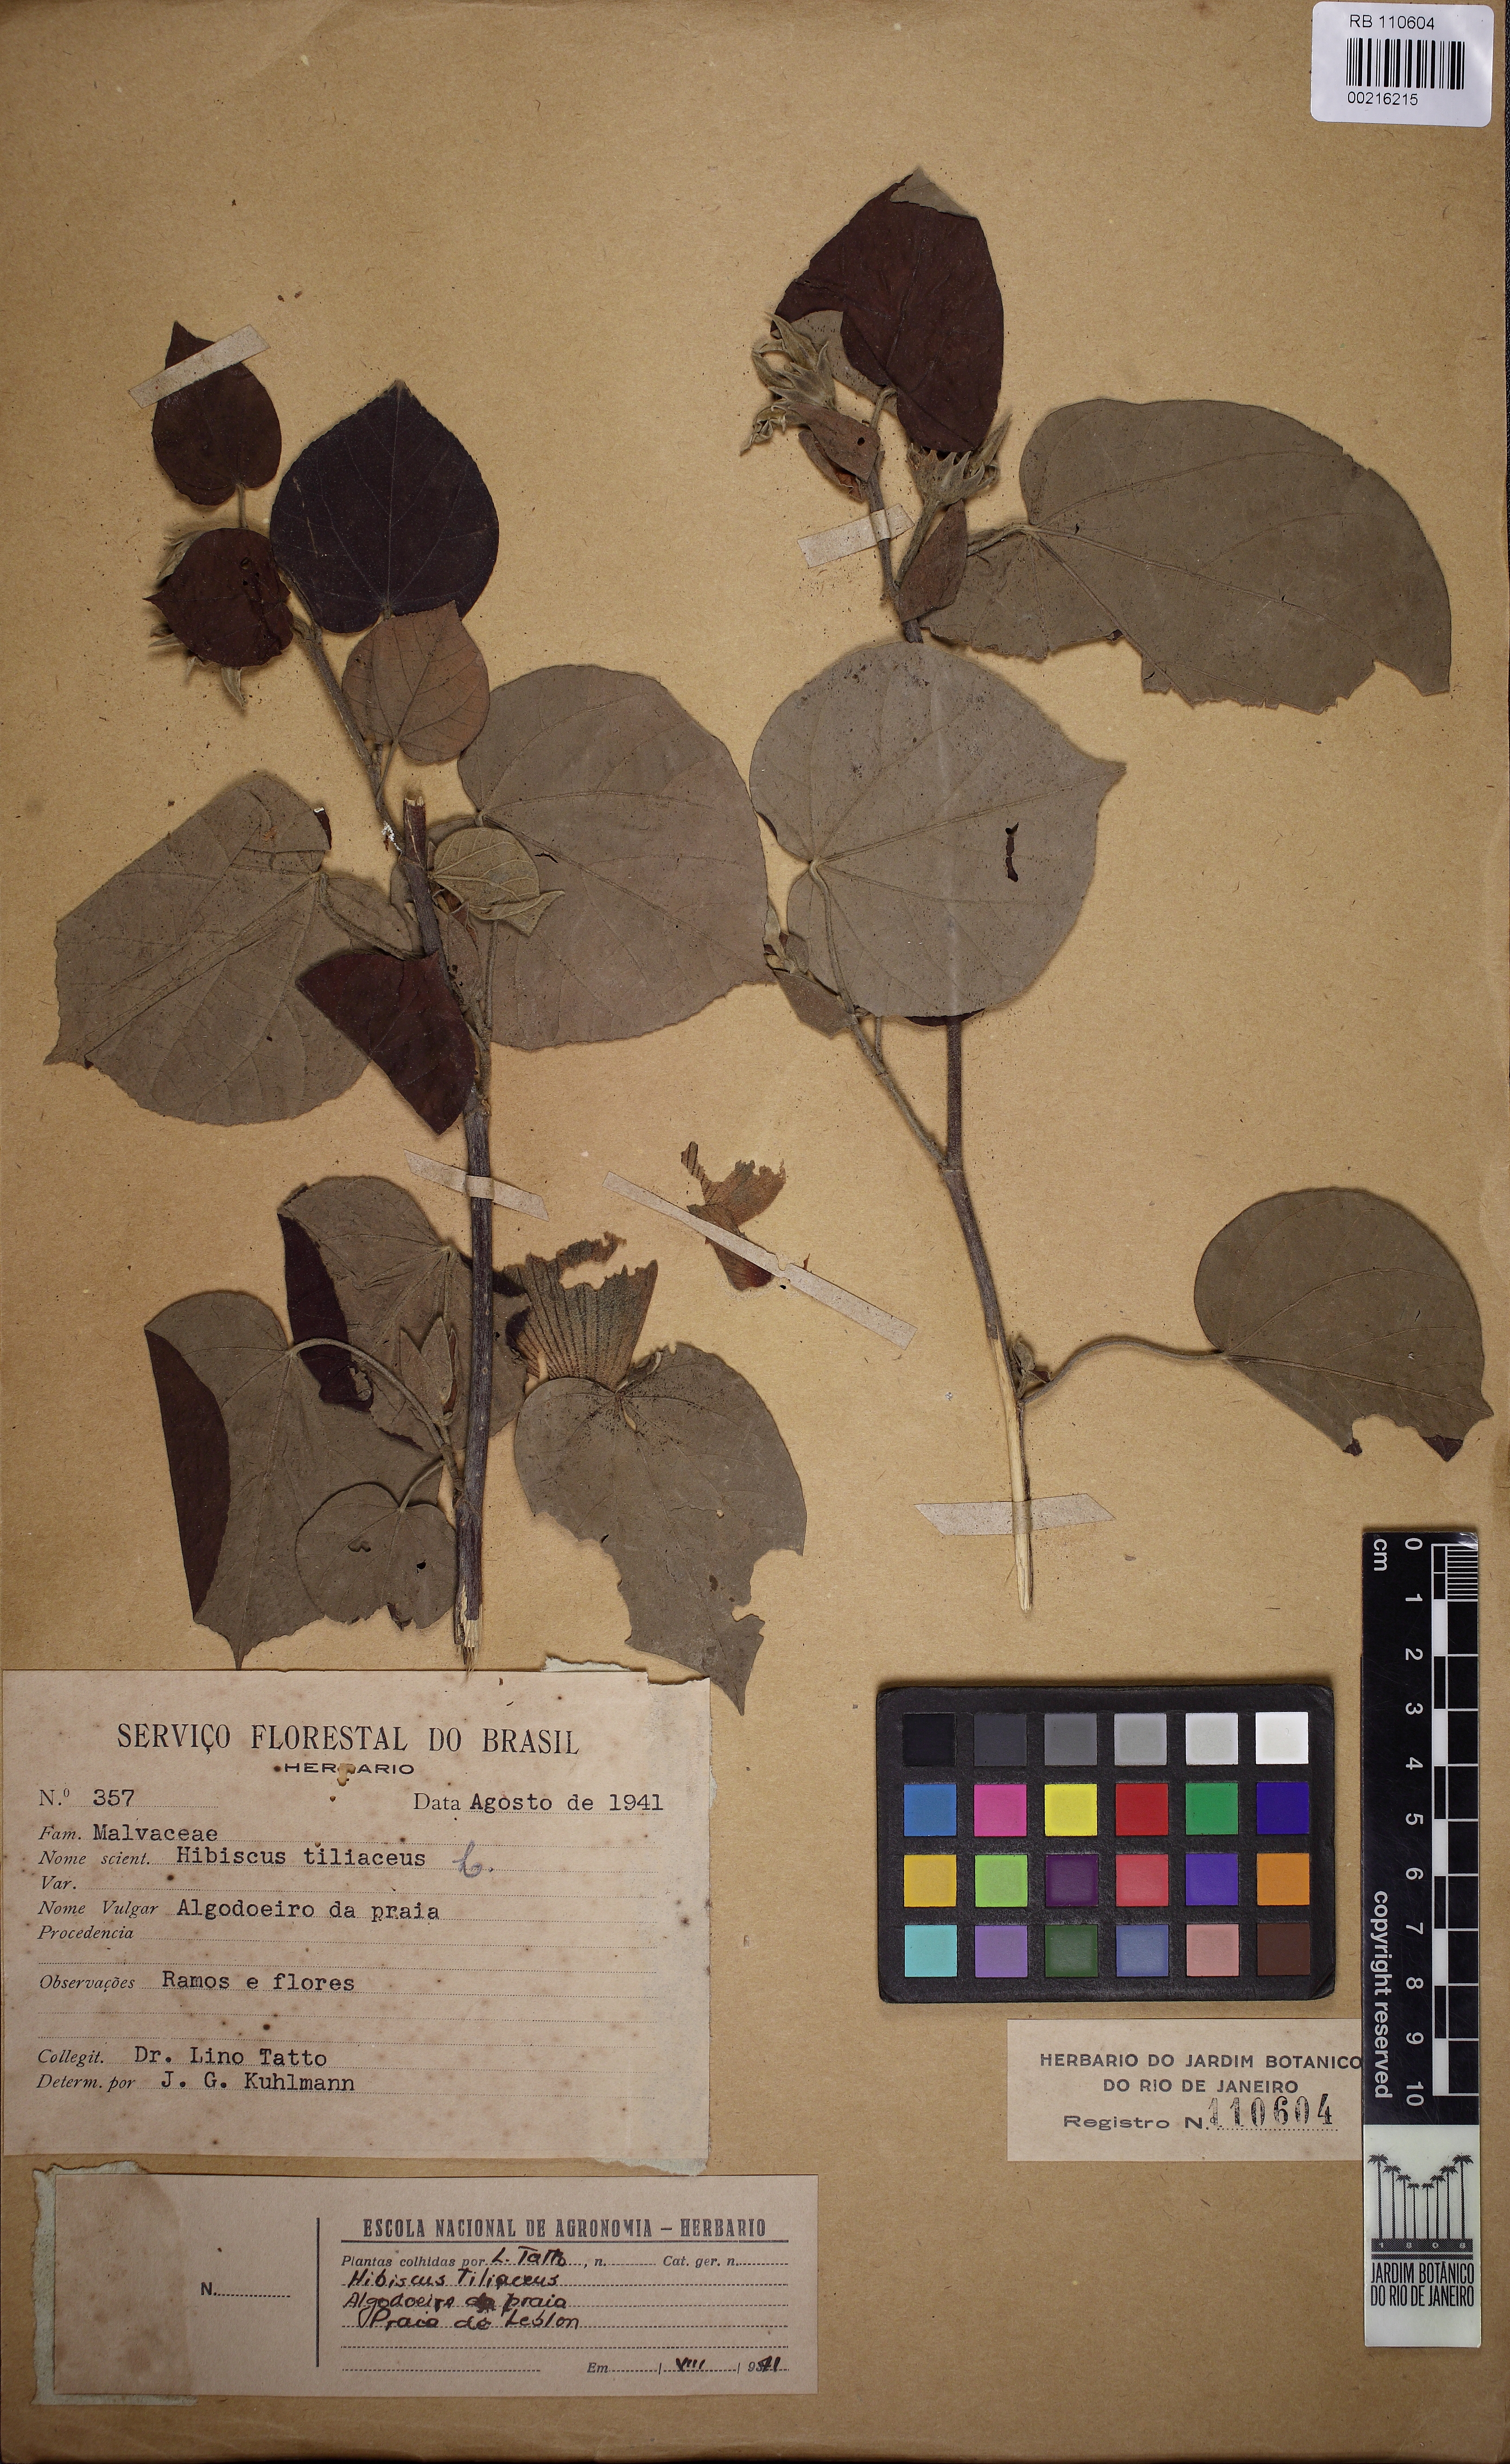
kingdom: Plantae
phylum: Tracheophyta
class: Magnoliopsida
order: Malvales
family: Malvaceae
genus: Talipariti
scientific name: Talipariti tiliaceum
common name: Sea hibiscus
